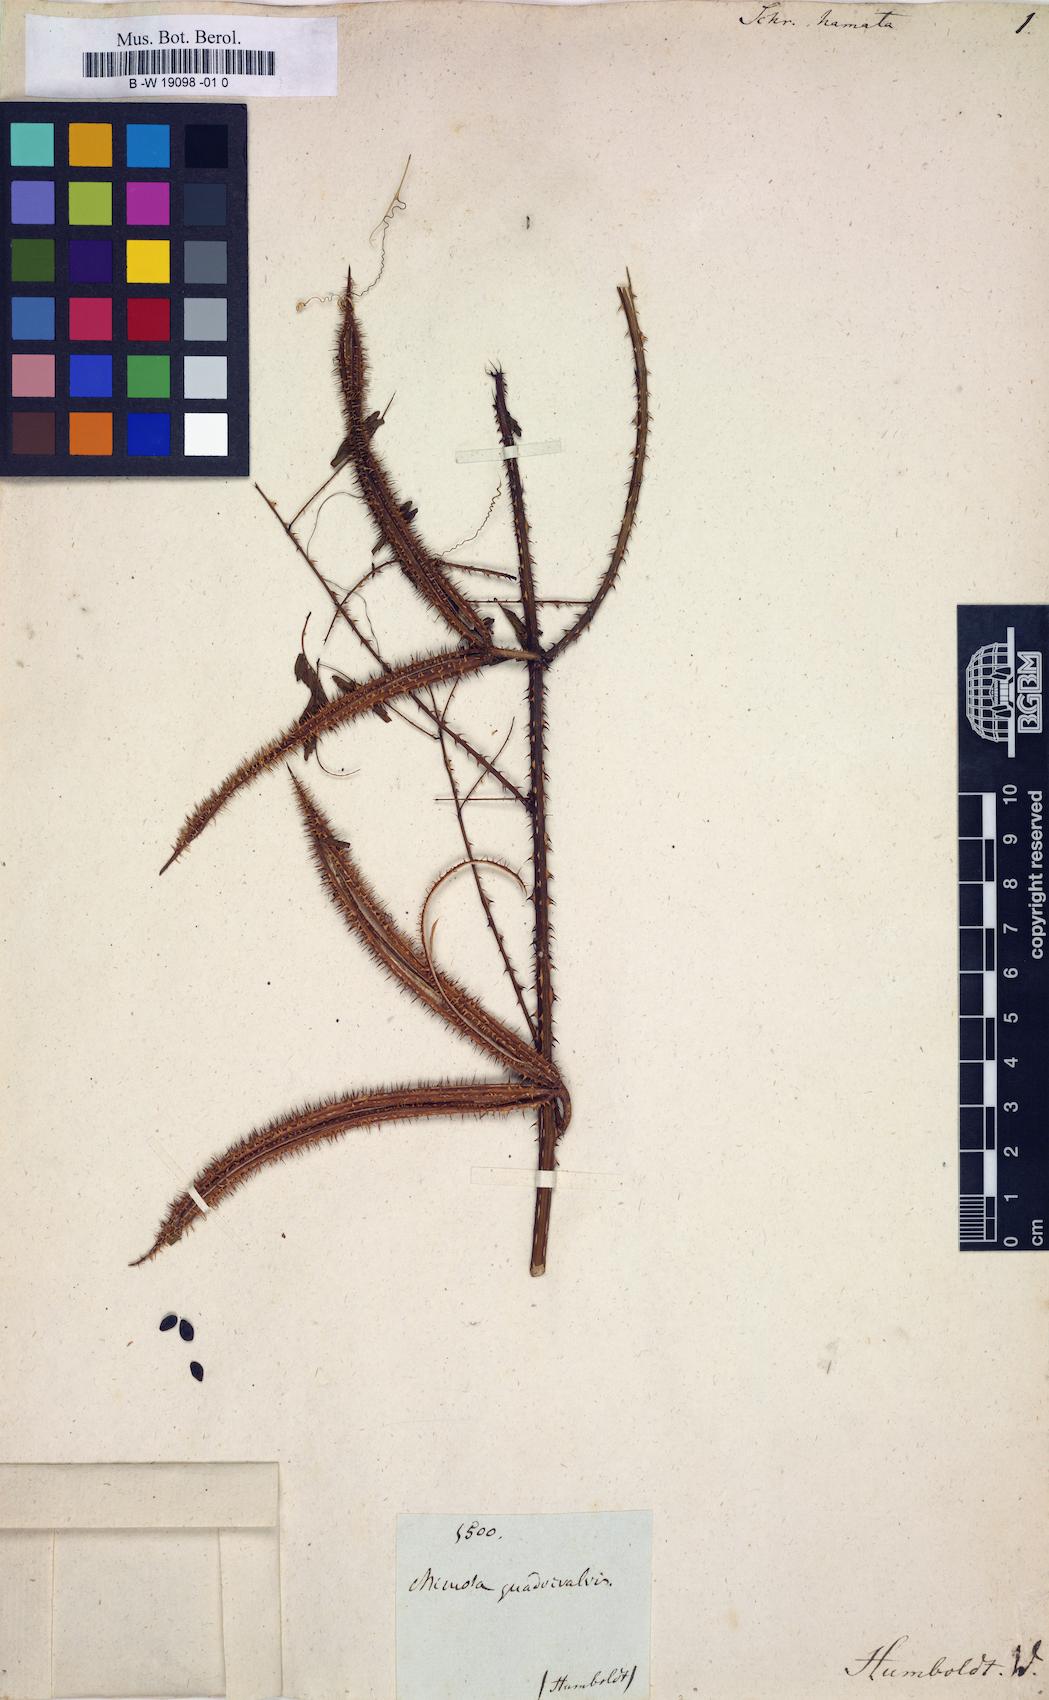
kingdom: Plantae
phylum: Tracheophyta
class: Magnoliopsida
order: Fabales
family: Fabaceae
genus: Mimosa
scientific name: Mimosa tetragona
